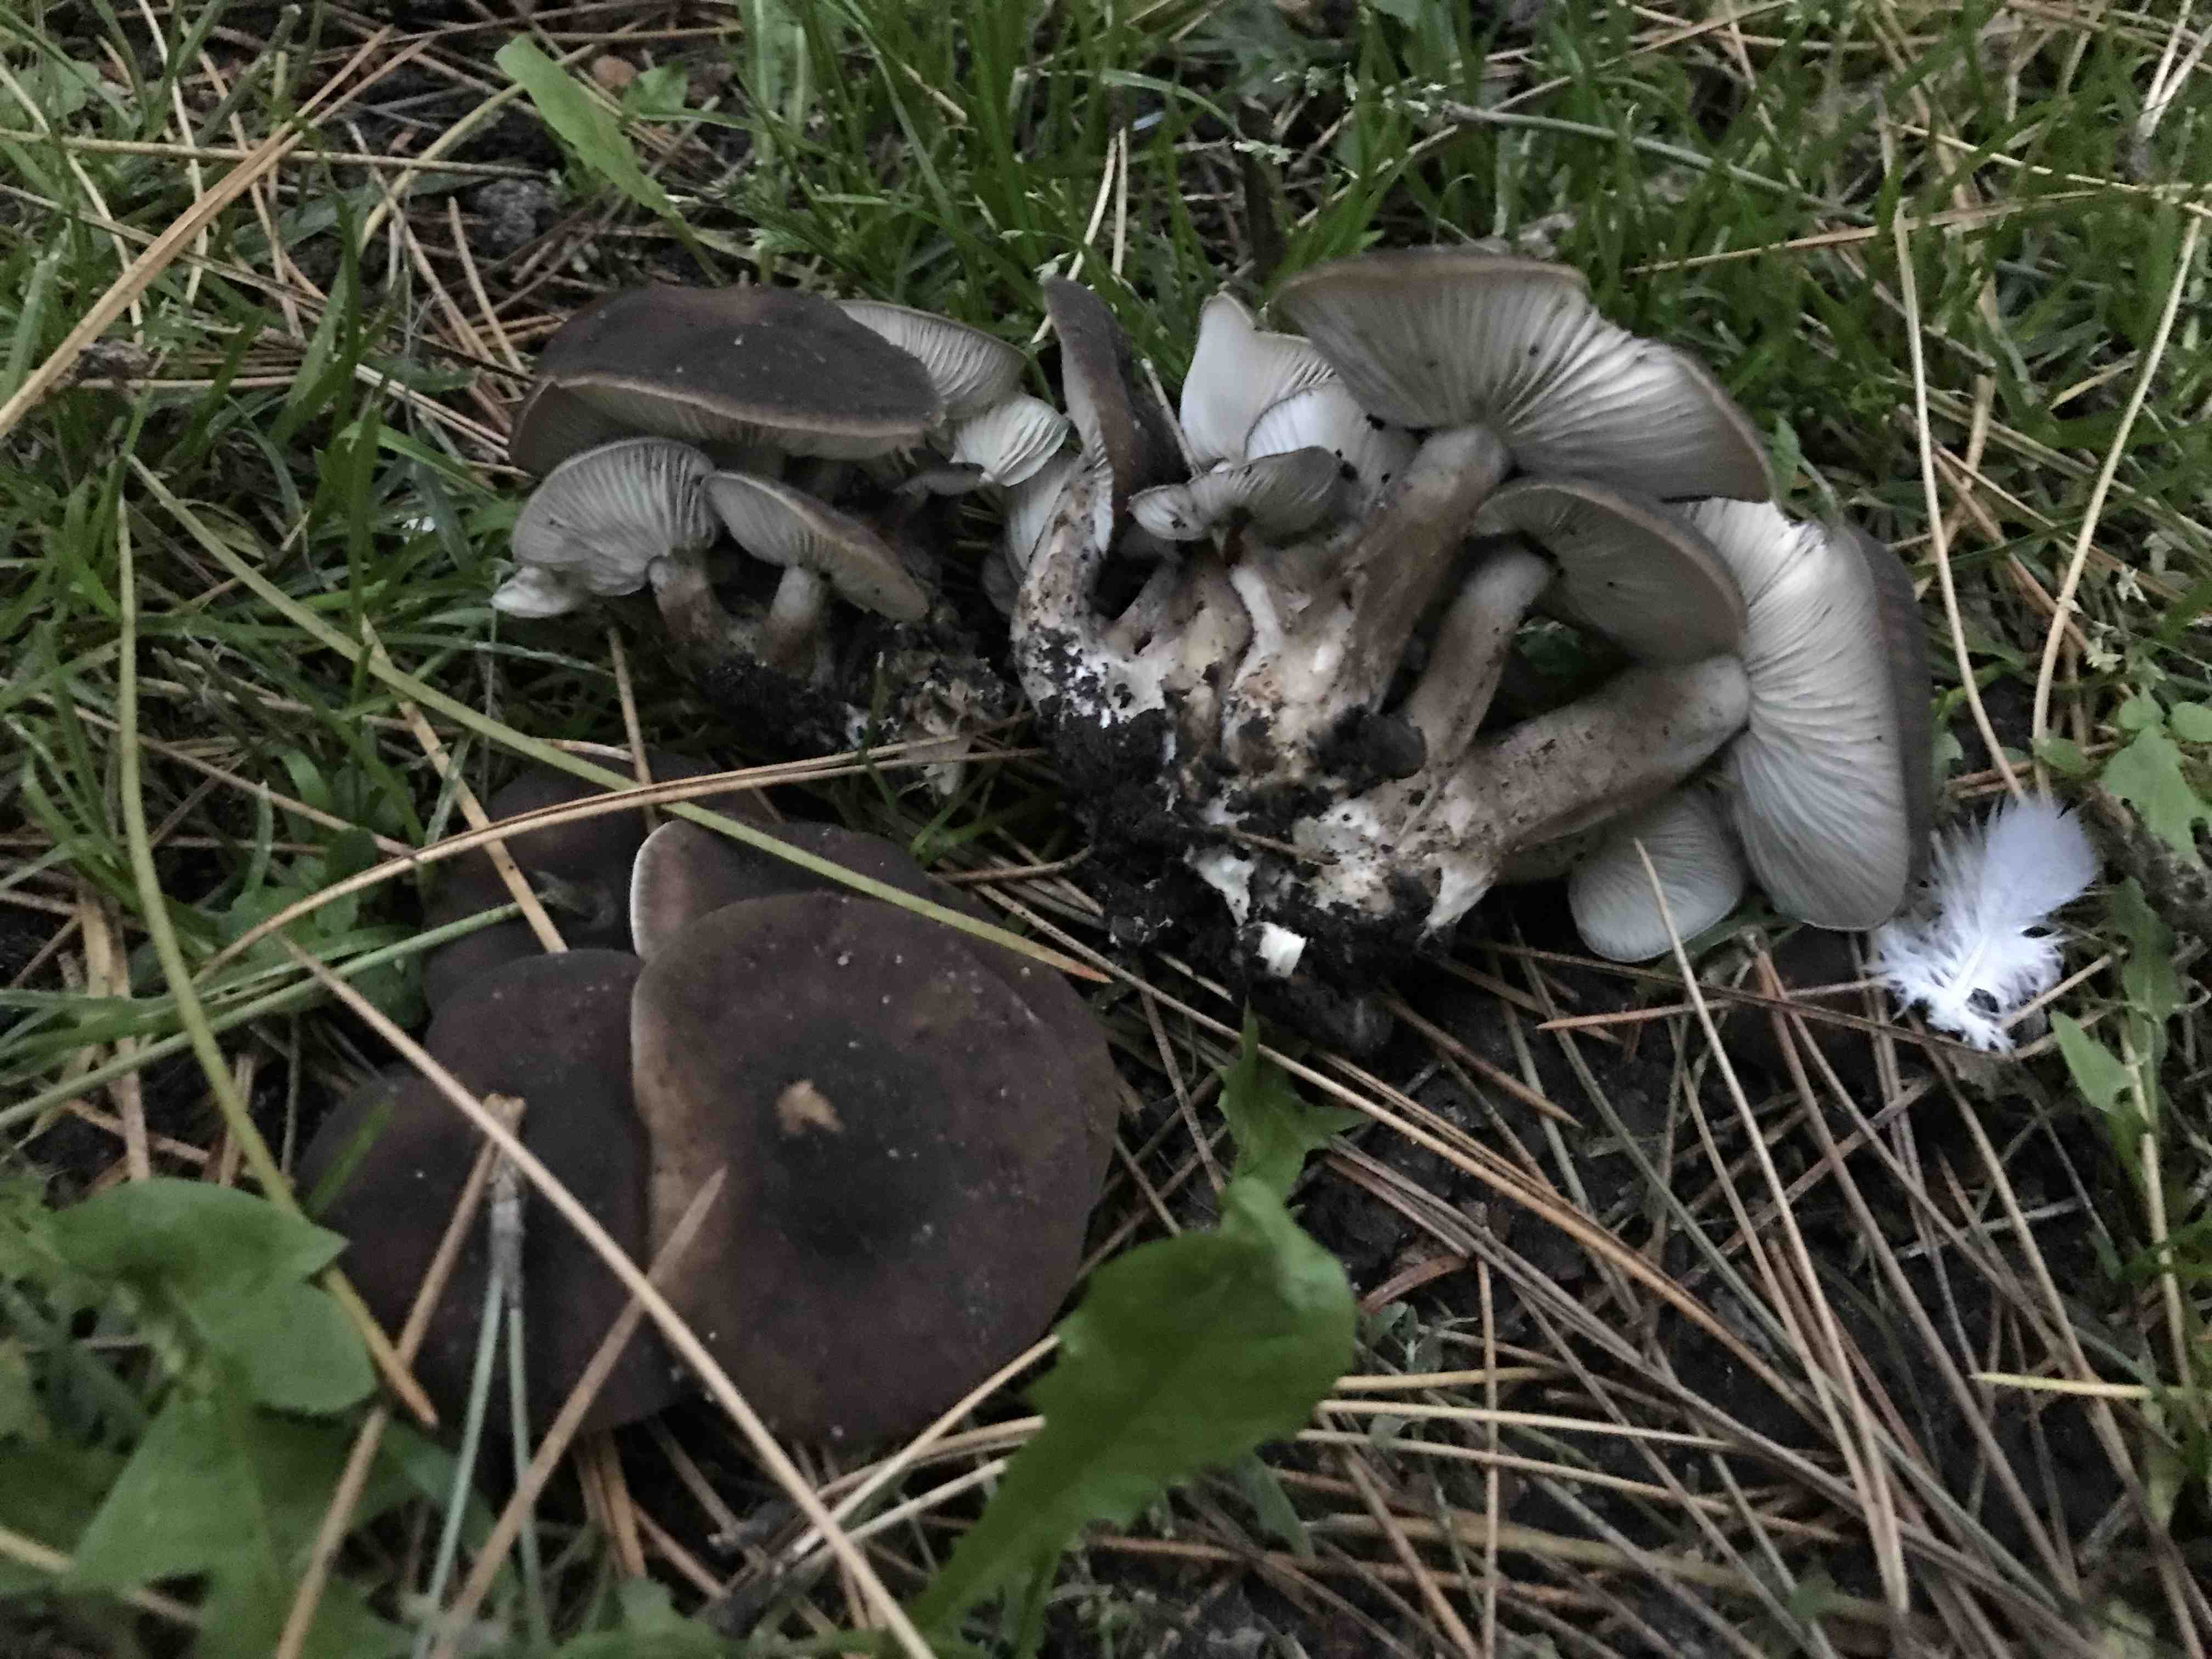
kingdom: Fungi
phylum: Basidiomycota
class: Agaricomycetes
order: Agaricales
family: Lyophyllaceae
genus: Lyophyllum
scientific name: Lyophyllum decastes
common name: røggrå gråblad
